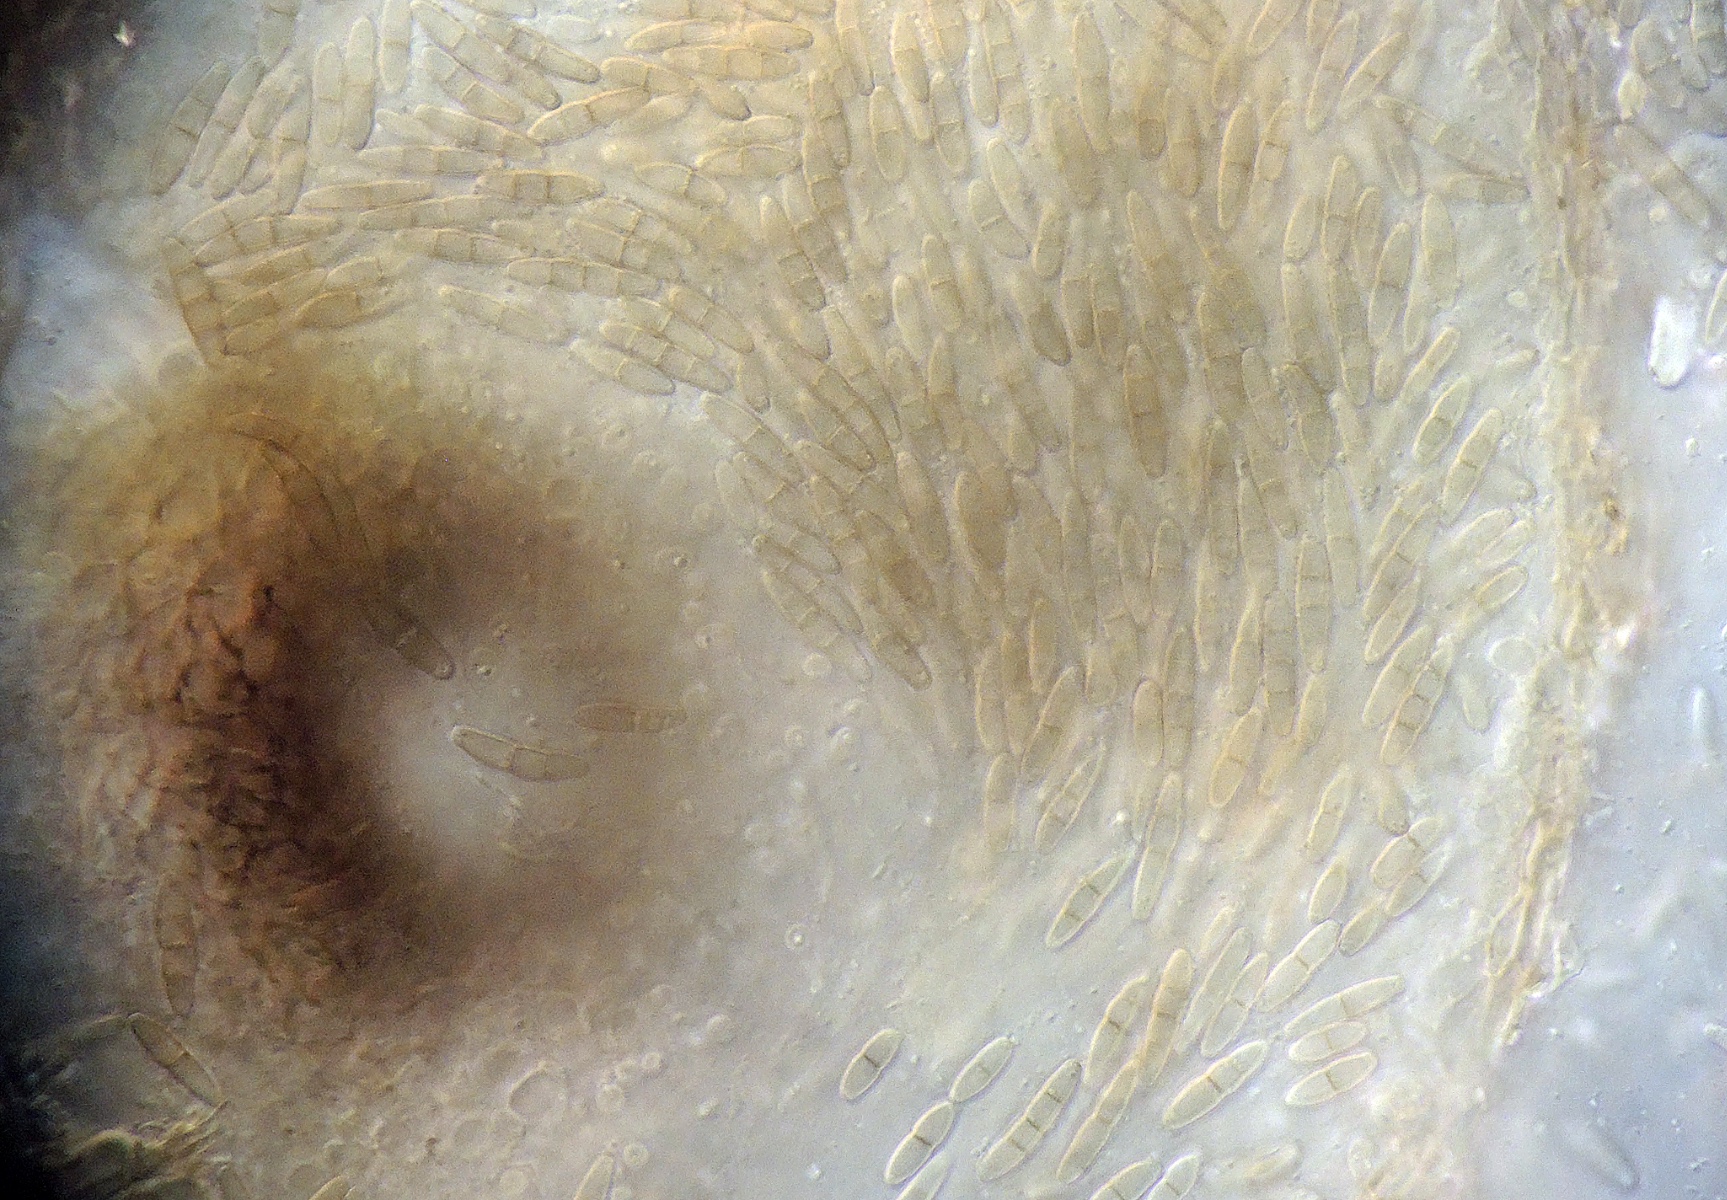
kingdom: Fungi
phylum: Ascomycota
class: Dothideomycetes
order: Pleosporales
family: Didymellaceae
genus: Ascochyta
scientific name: Ascochyta deformis
